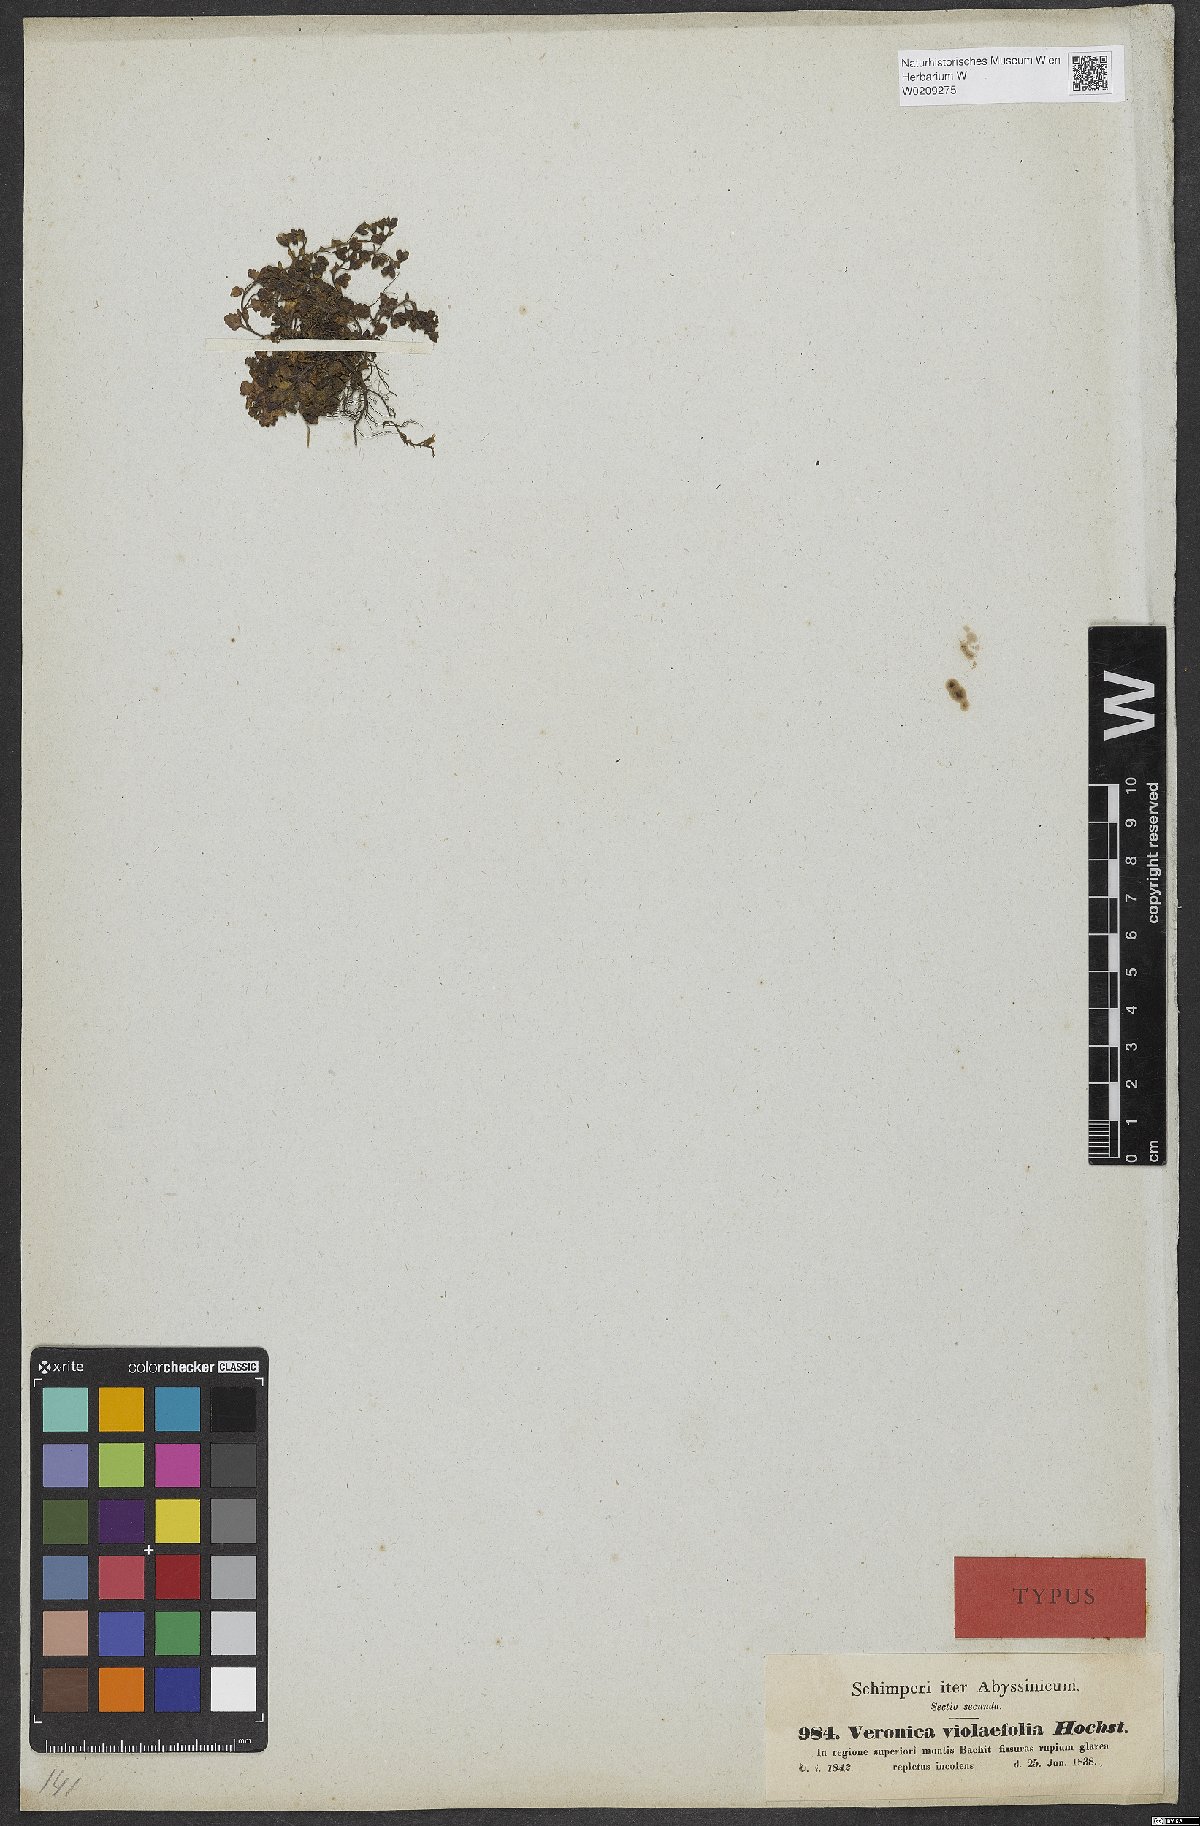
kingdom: Plantae
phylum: Tracheophyta
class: Magnoliopsida
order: Lamiales
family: Plantaginaceae
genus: Veronica
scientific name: Veronica violaefolia
